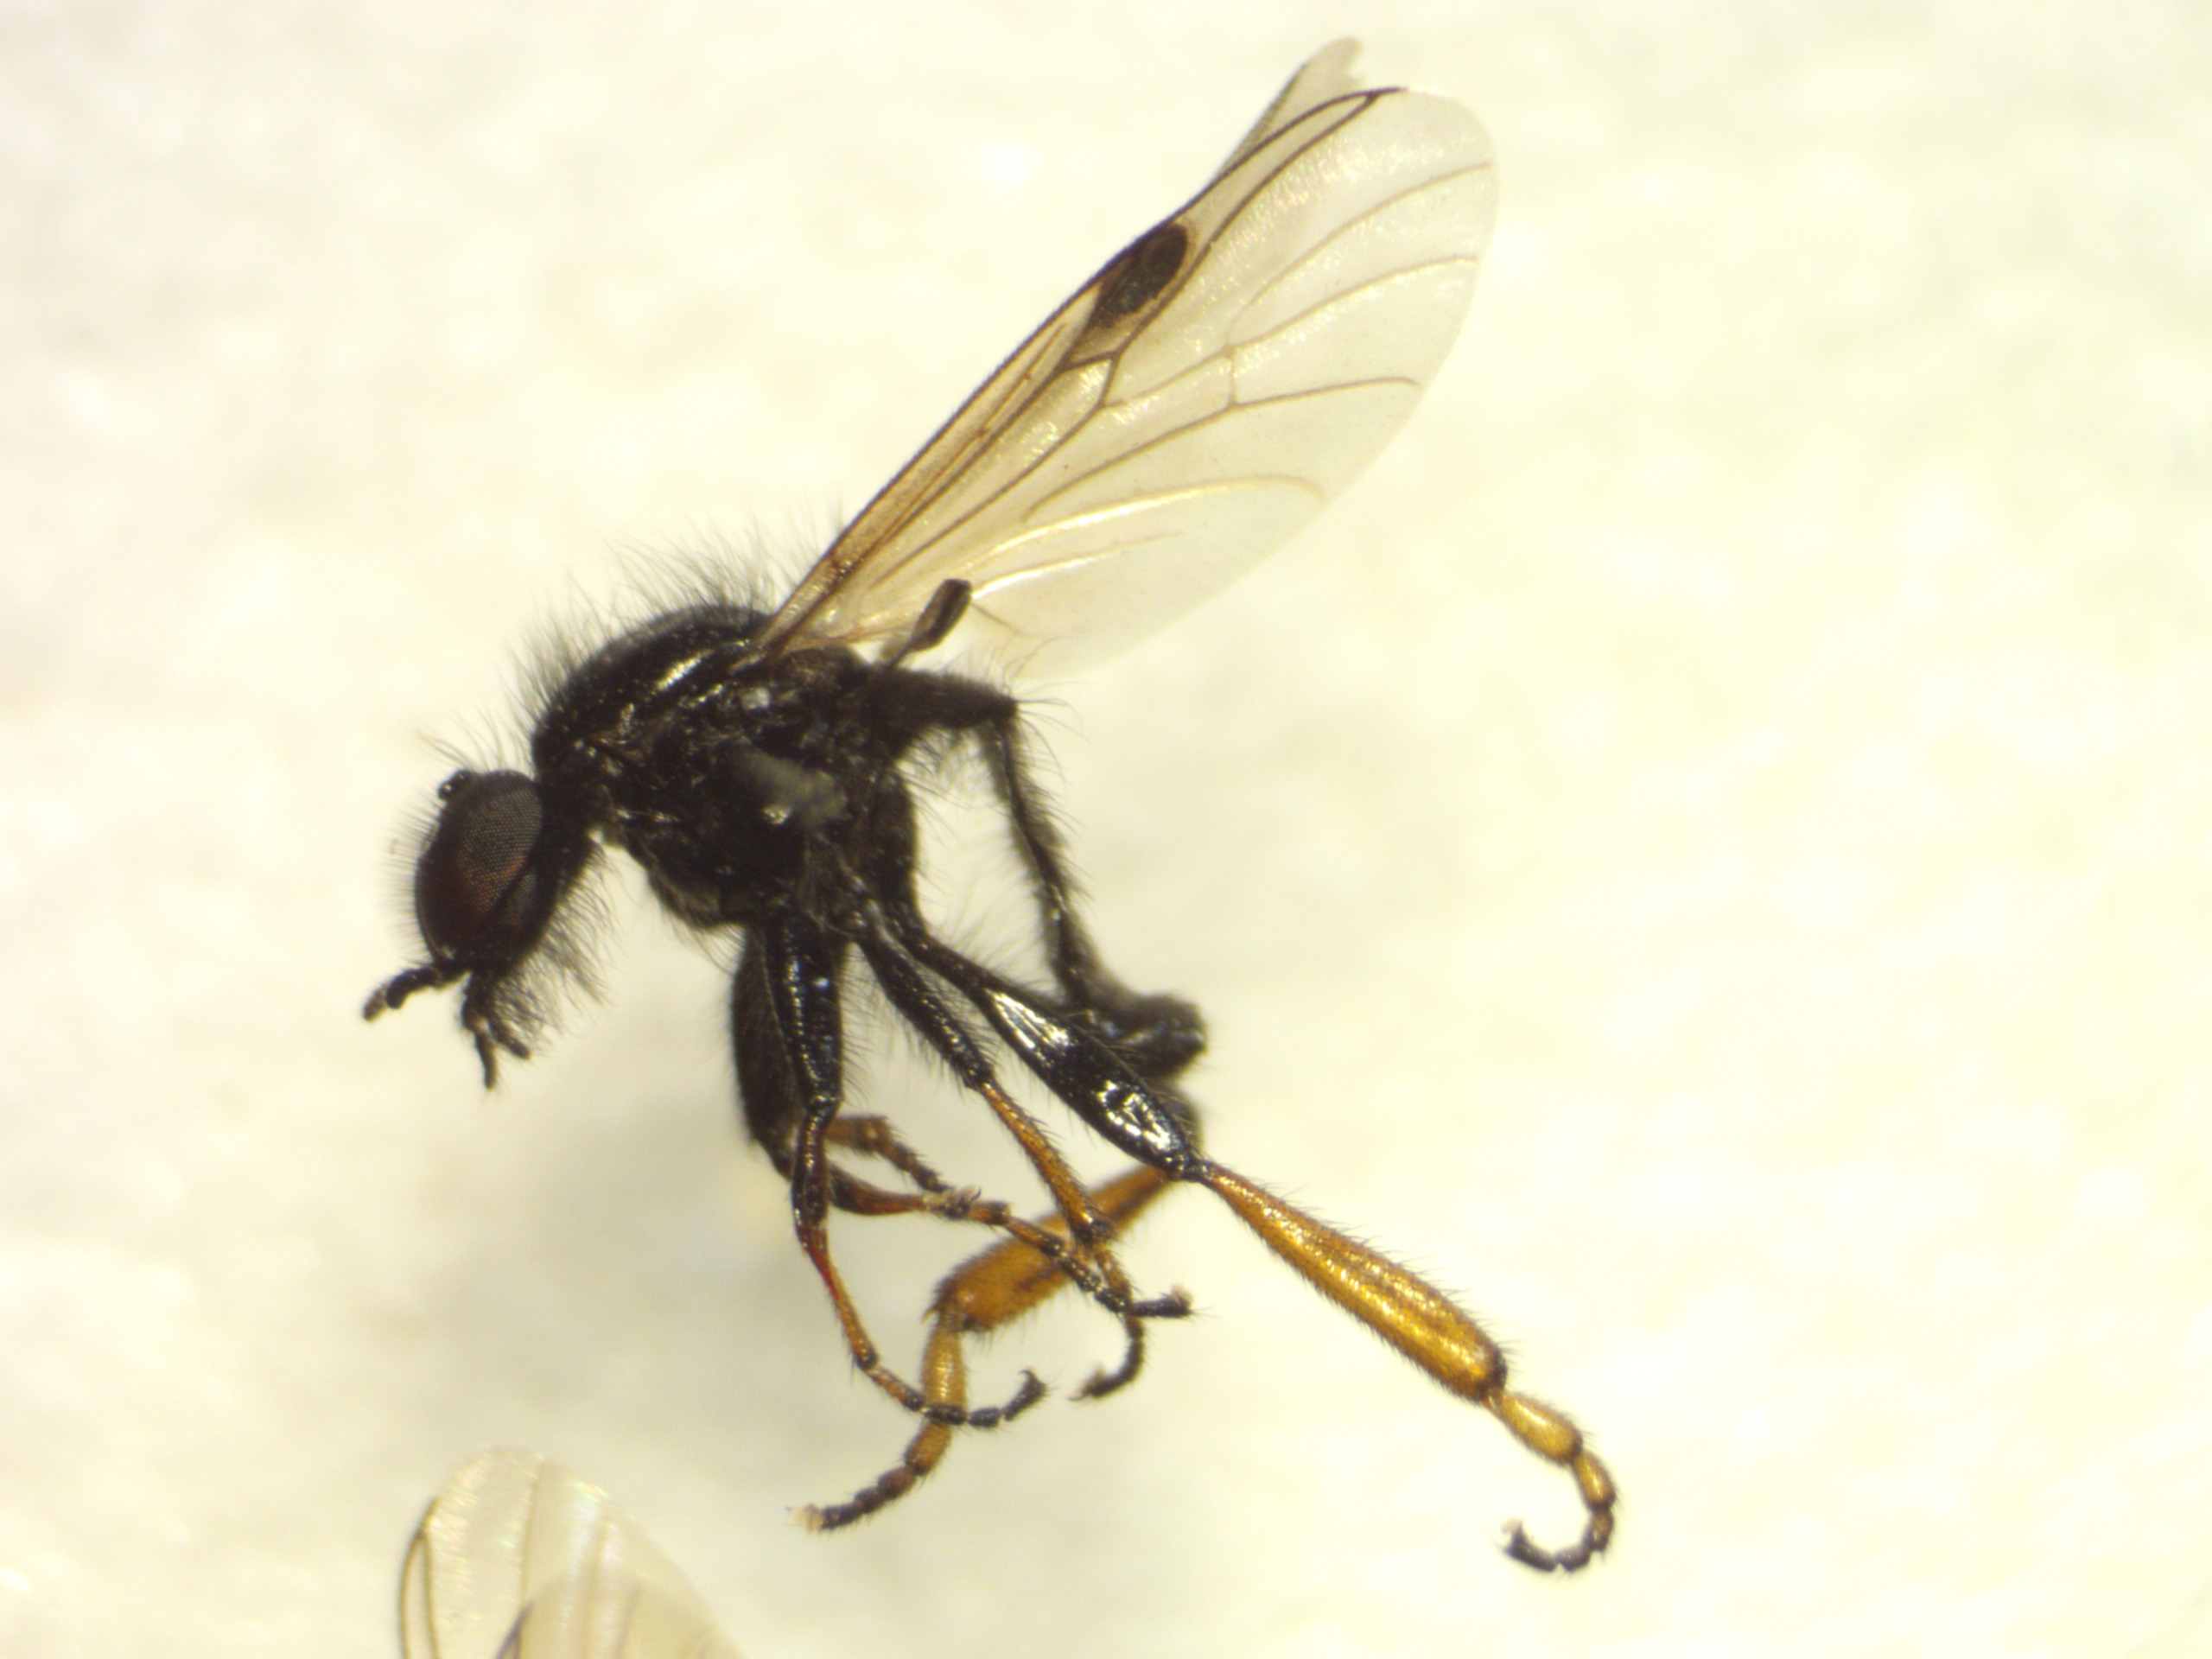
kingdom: Animalia
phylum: Arthropoda
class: Insecta
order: Diptera
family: Bibionidae
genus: Bibio
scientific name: Bibio johannis
